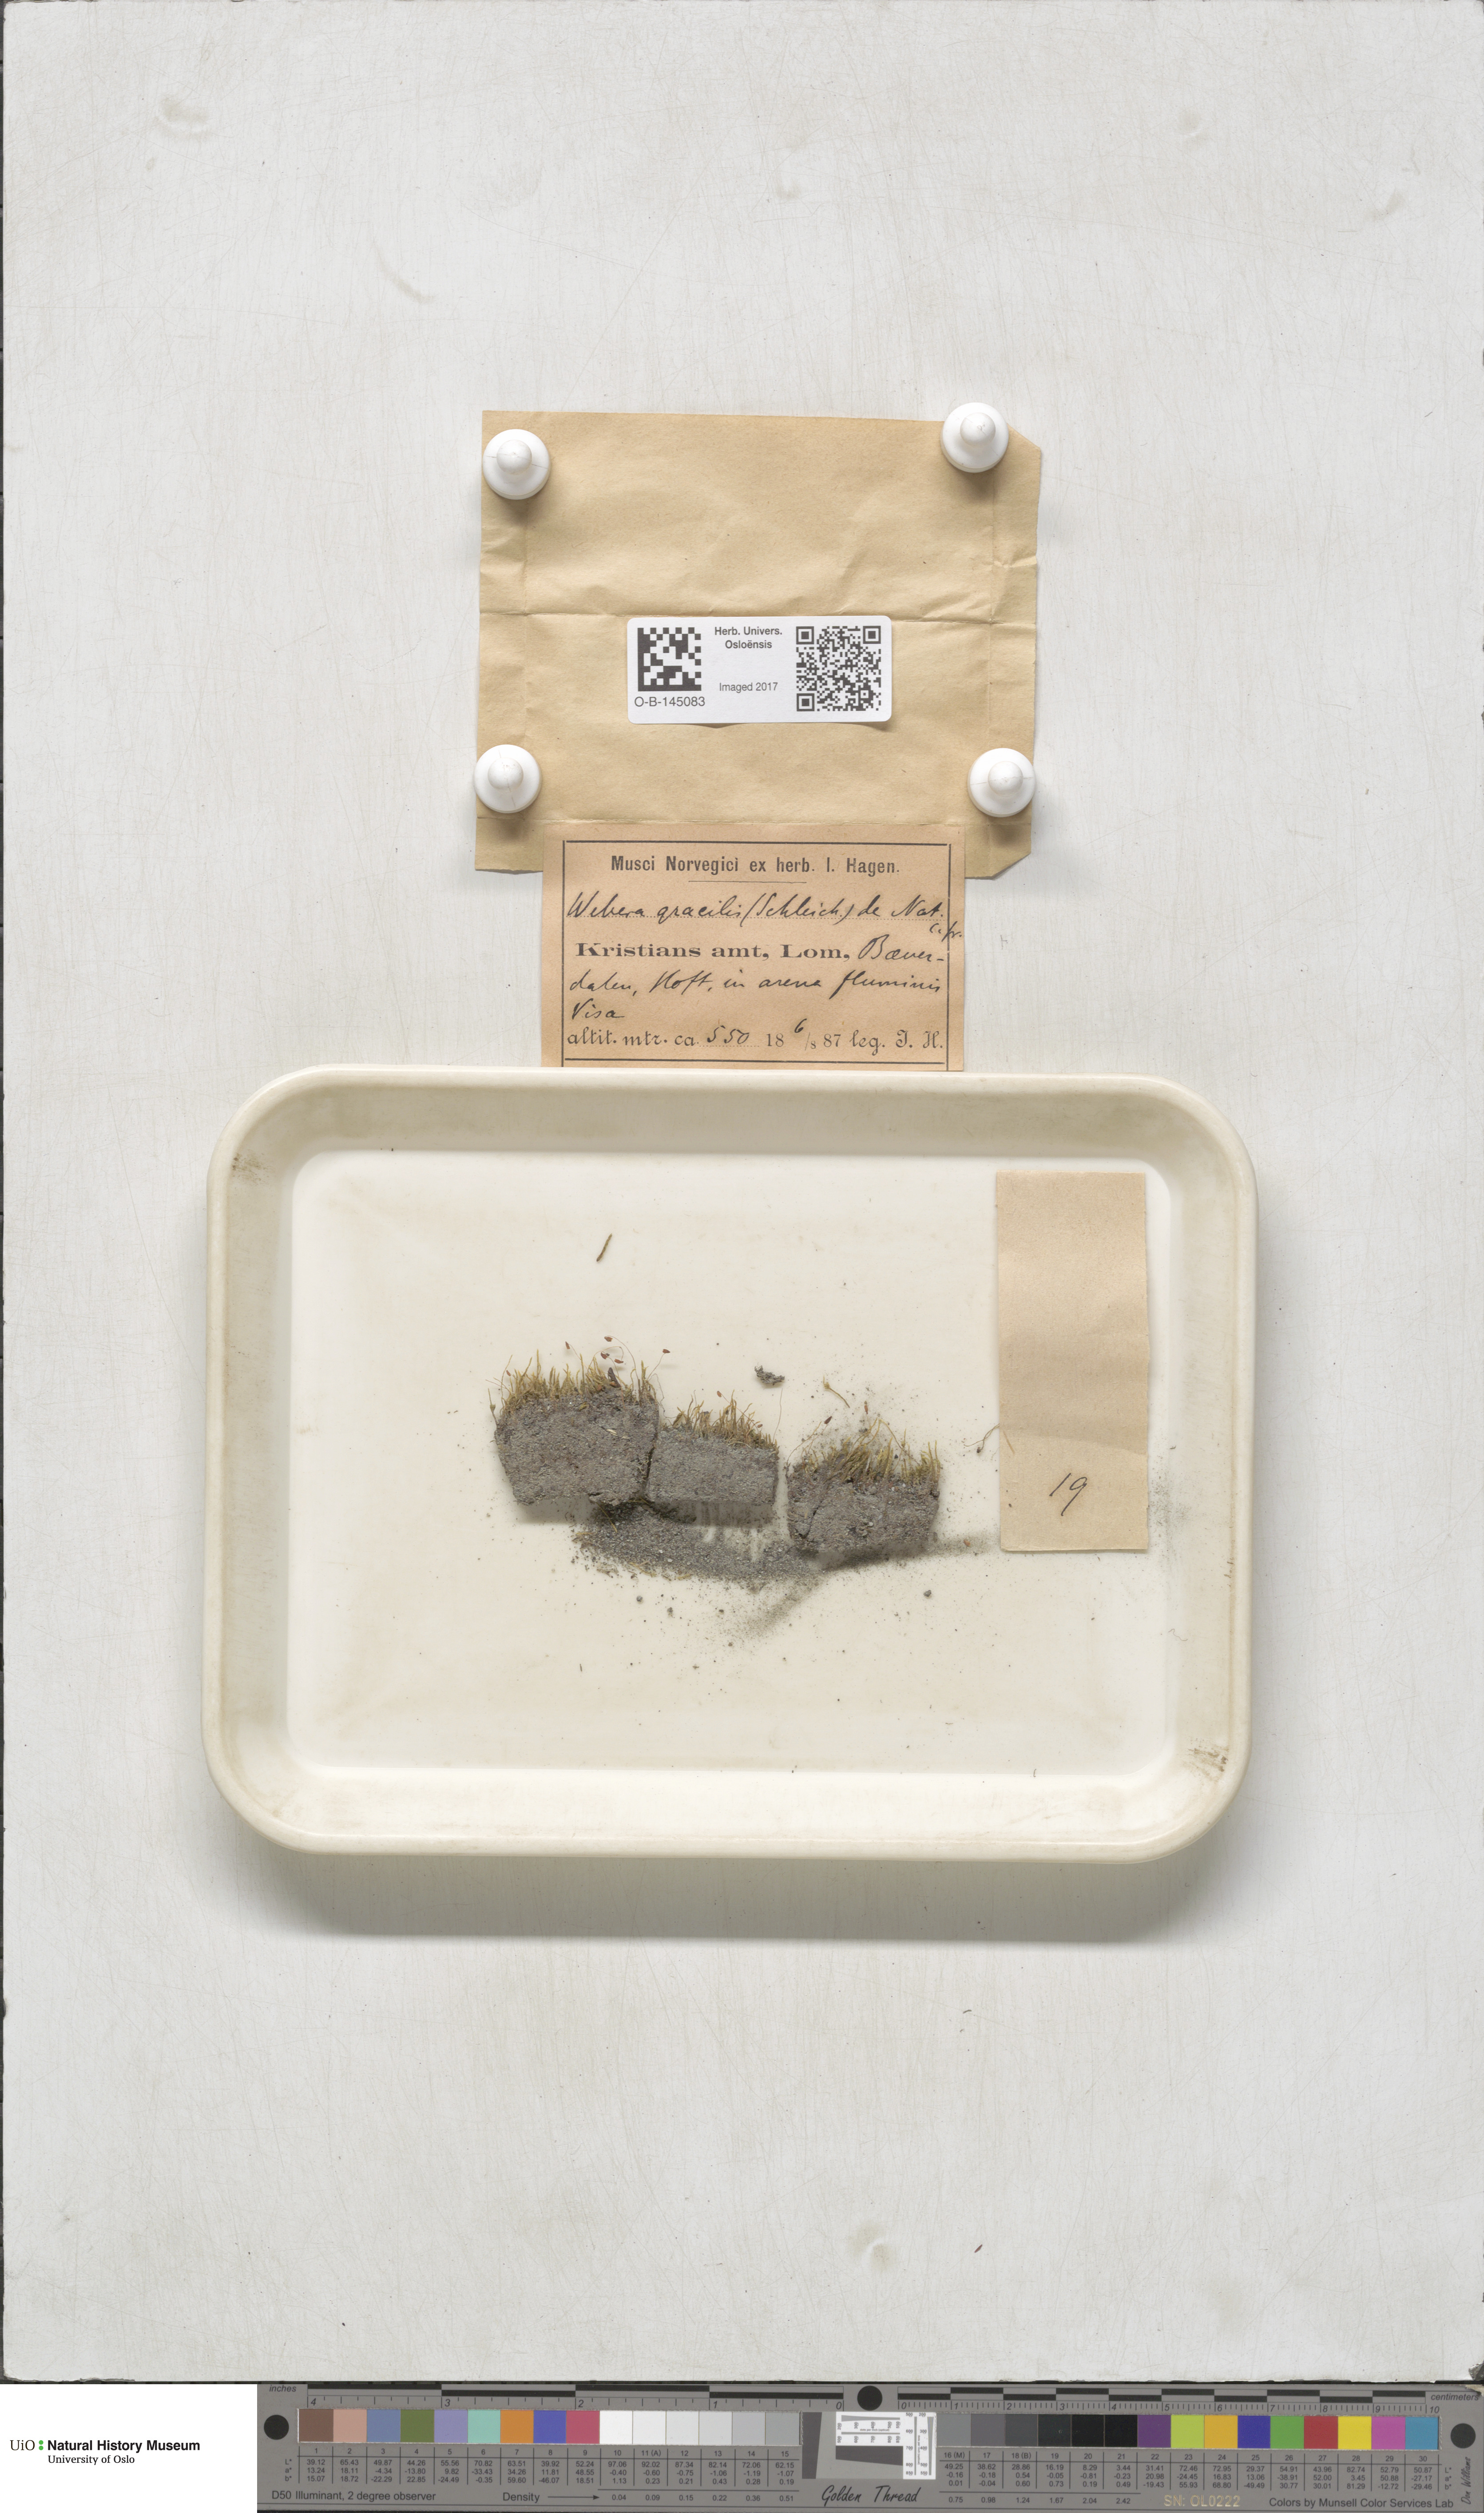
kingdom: Plantae
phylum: Bryophyta
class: Bryopsida
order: Bryales
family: Mniaceae
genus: Pohlia
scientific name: Pohlia filum
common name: Slender nodding moss
